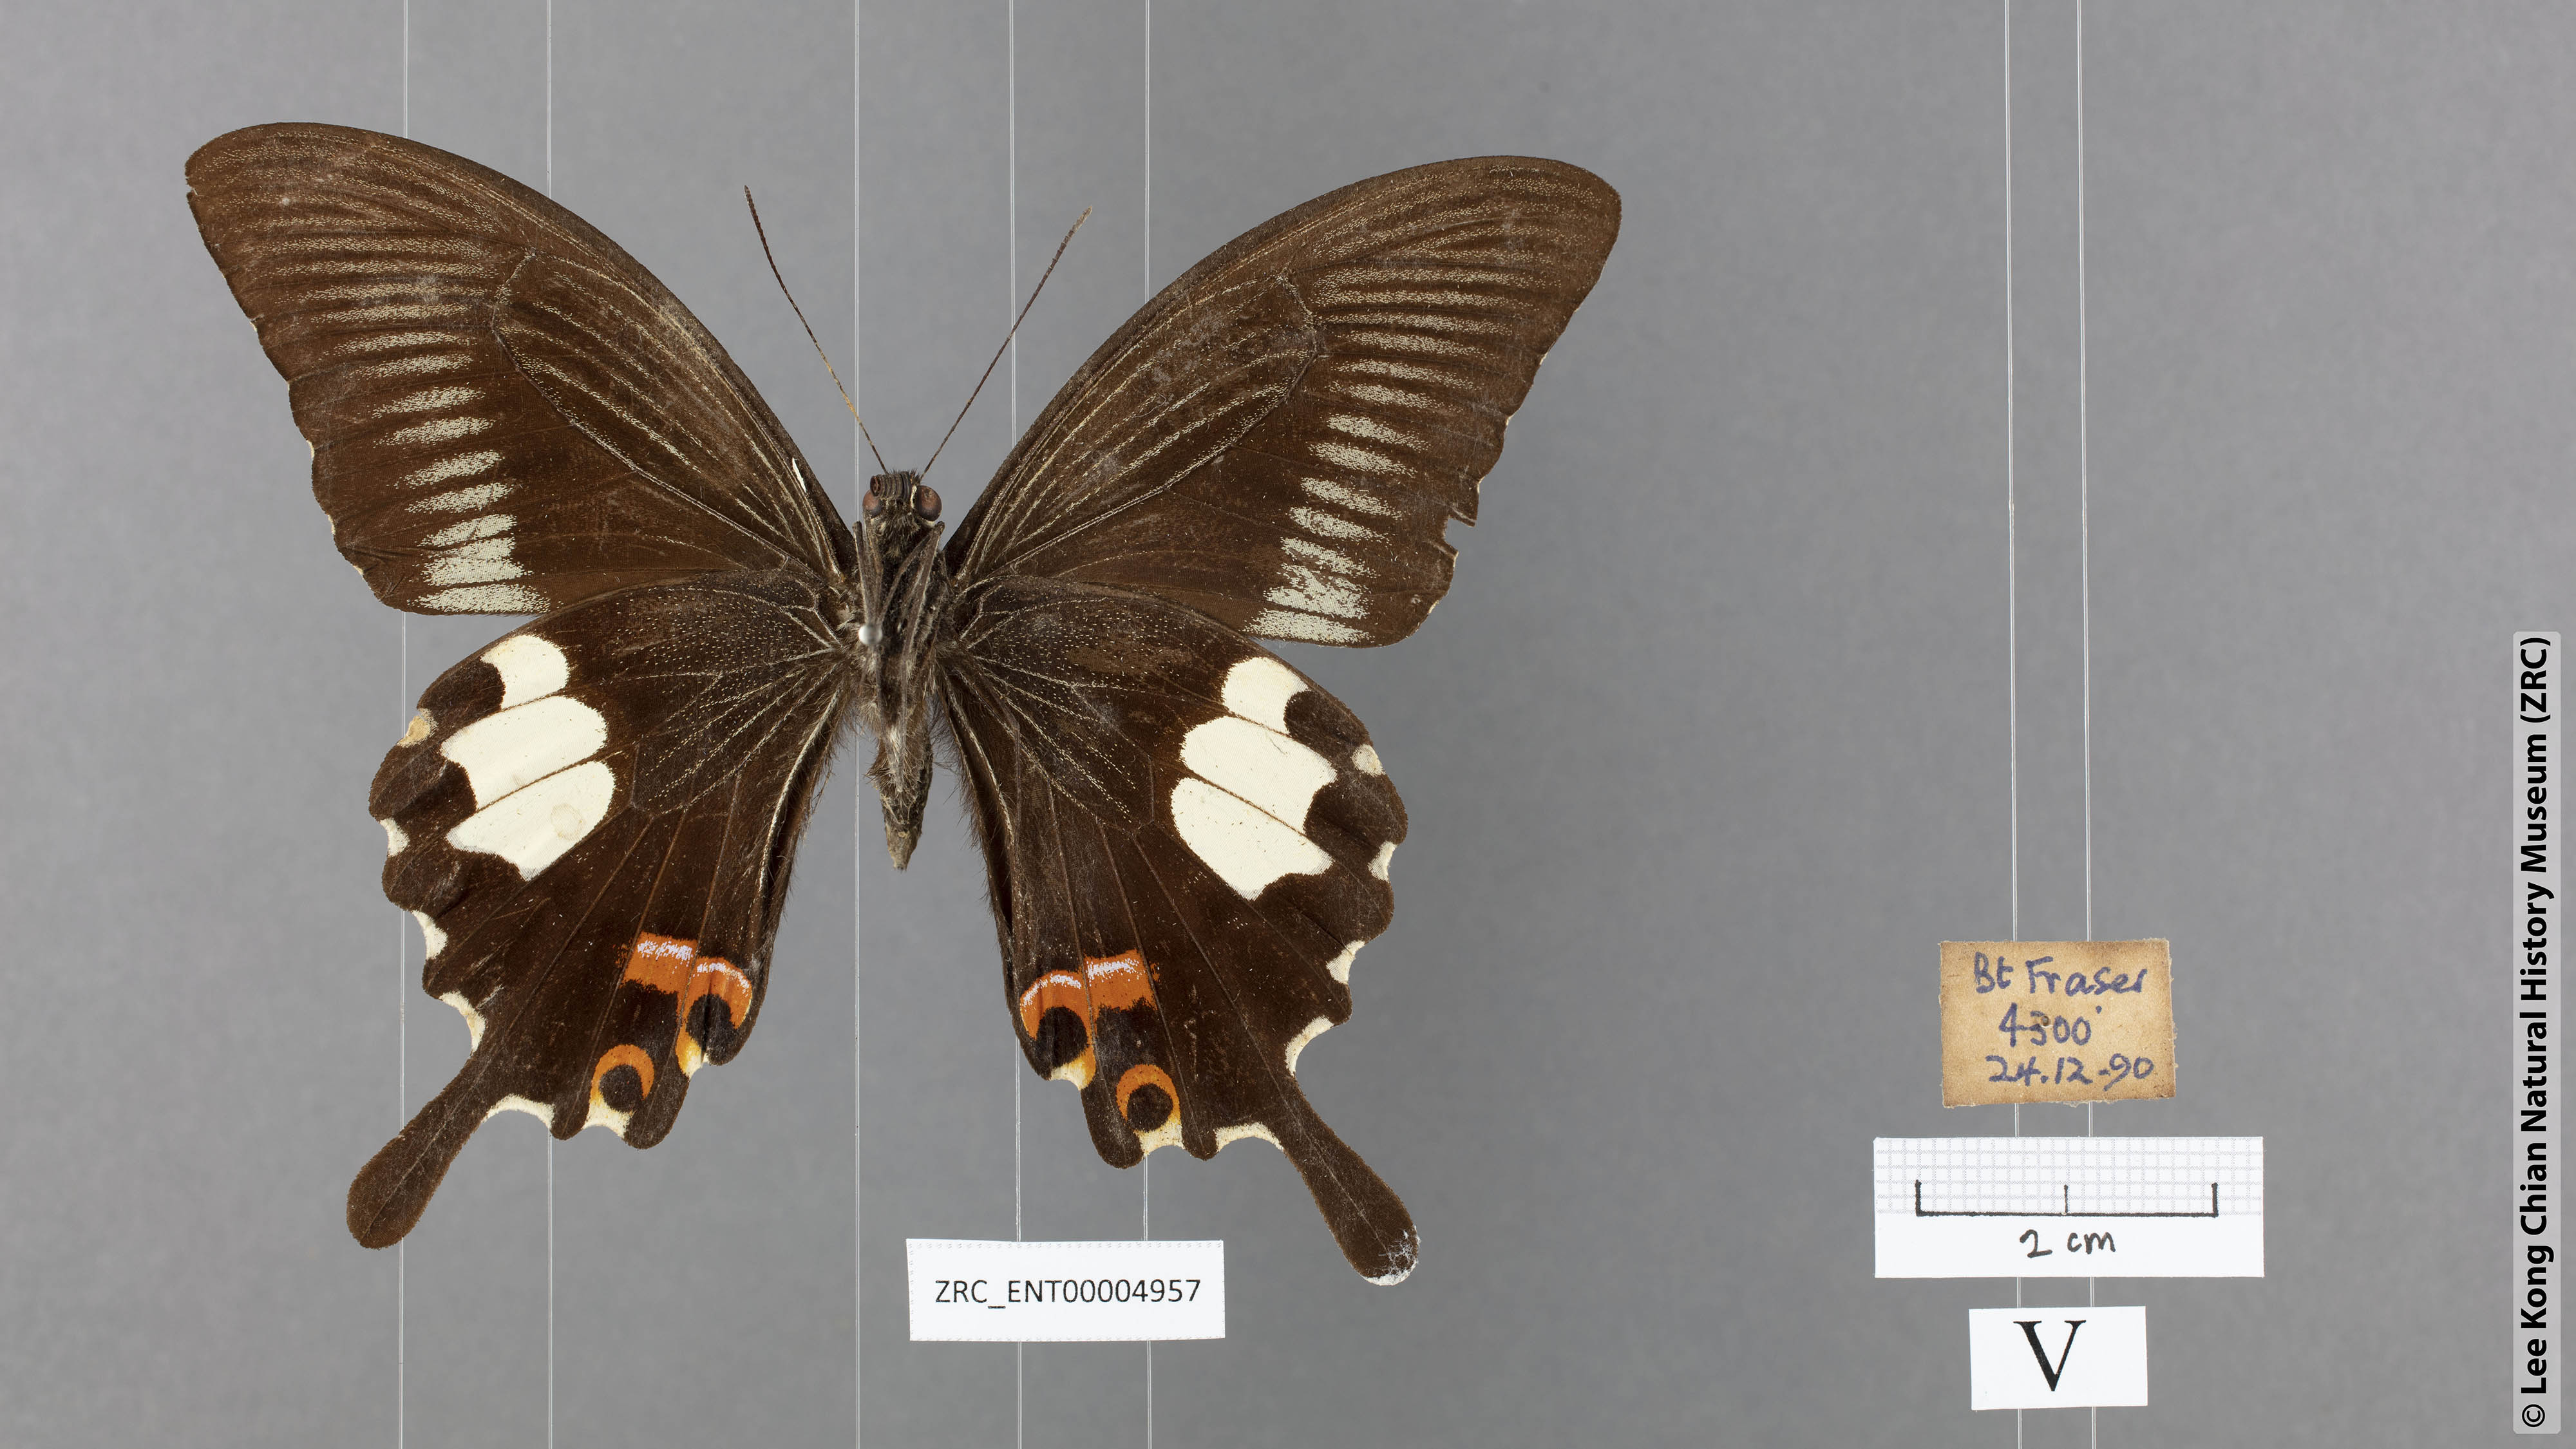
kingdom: Animalia
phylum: Arthropoda
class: Insecta
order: Lepidoptera
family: Papilionidae
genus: Papilio
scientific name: Papilio iswaroides
